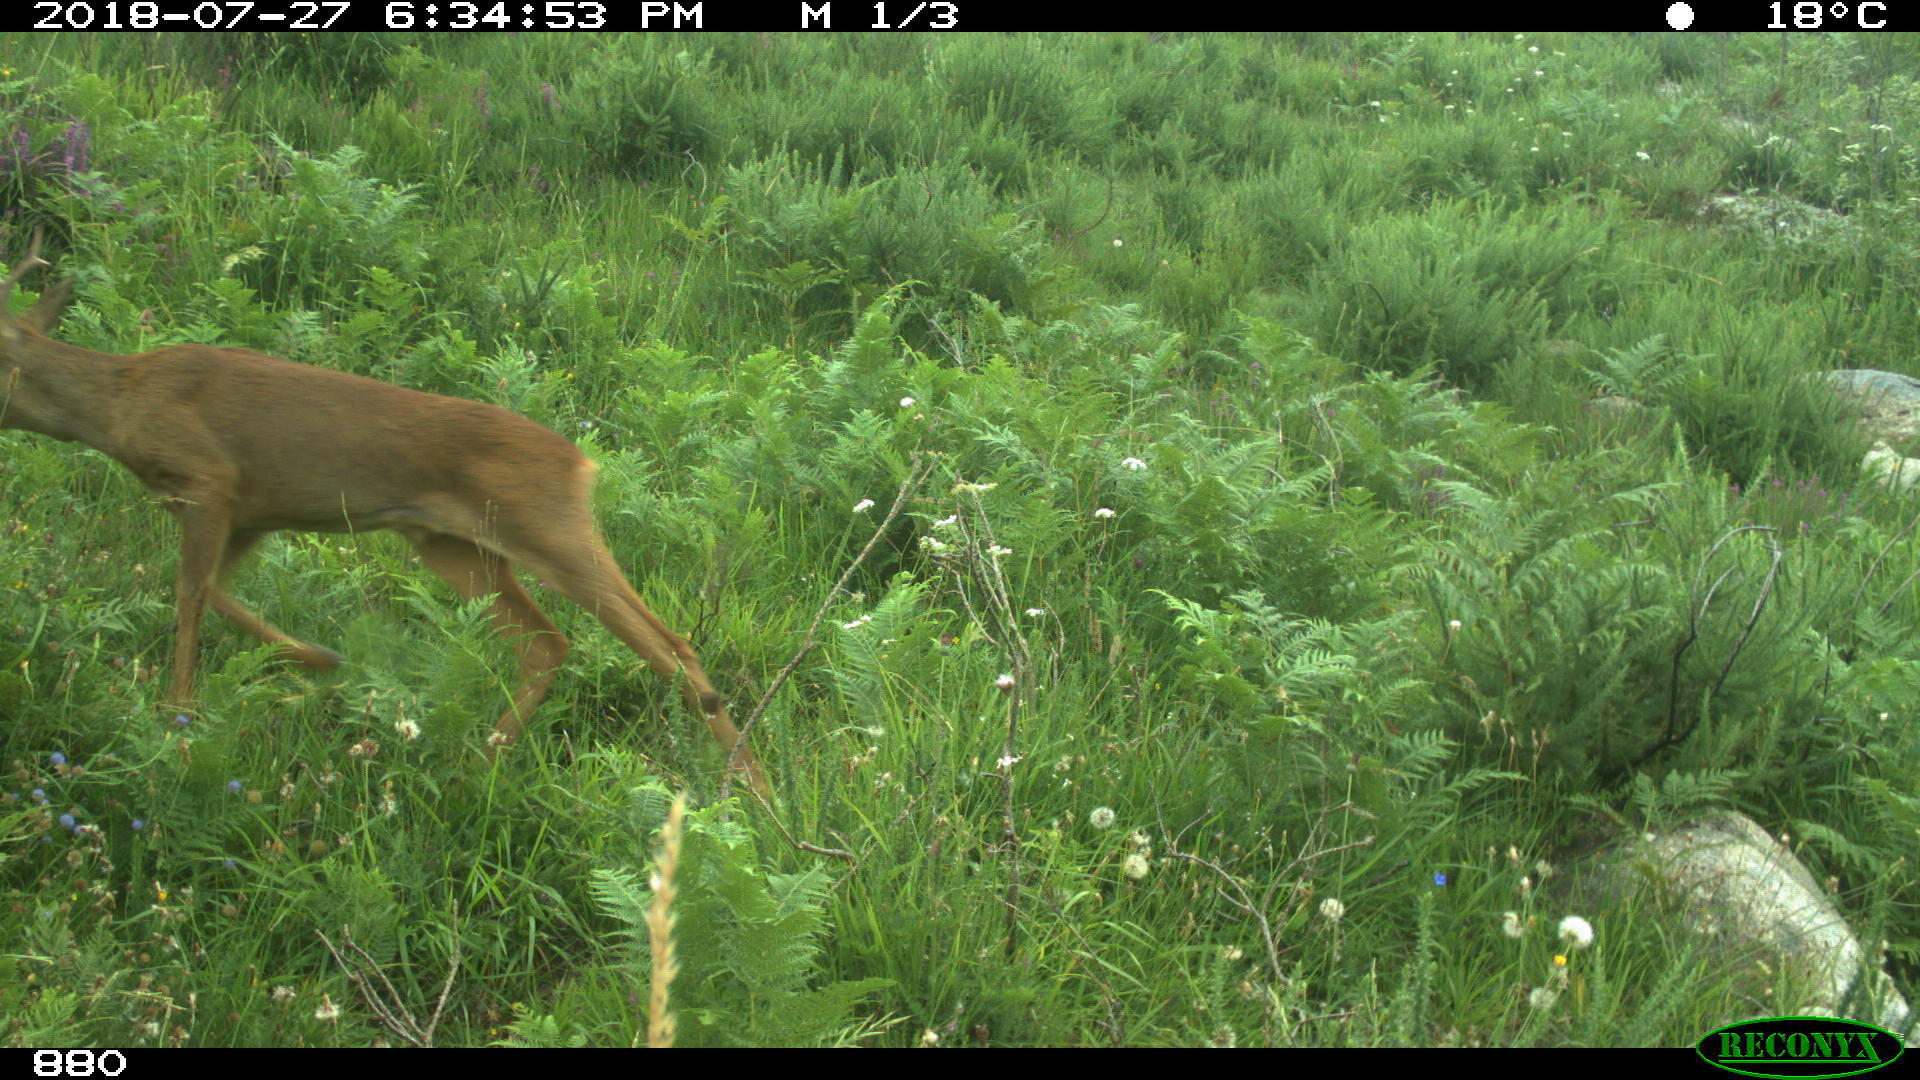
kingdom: Animalia
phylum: Chordata
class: Mammalia
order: Artiodactyla
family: Cervidae
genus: Capreolus
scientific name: Capreolus capreolus
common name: Western roe deer
